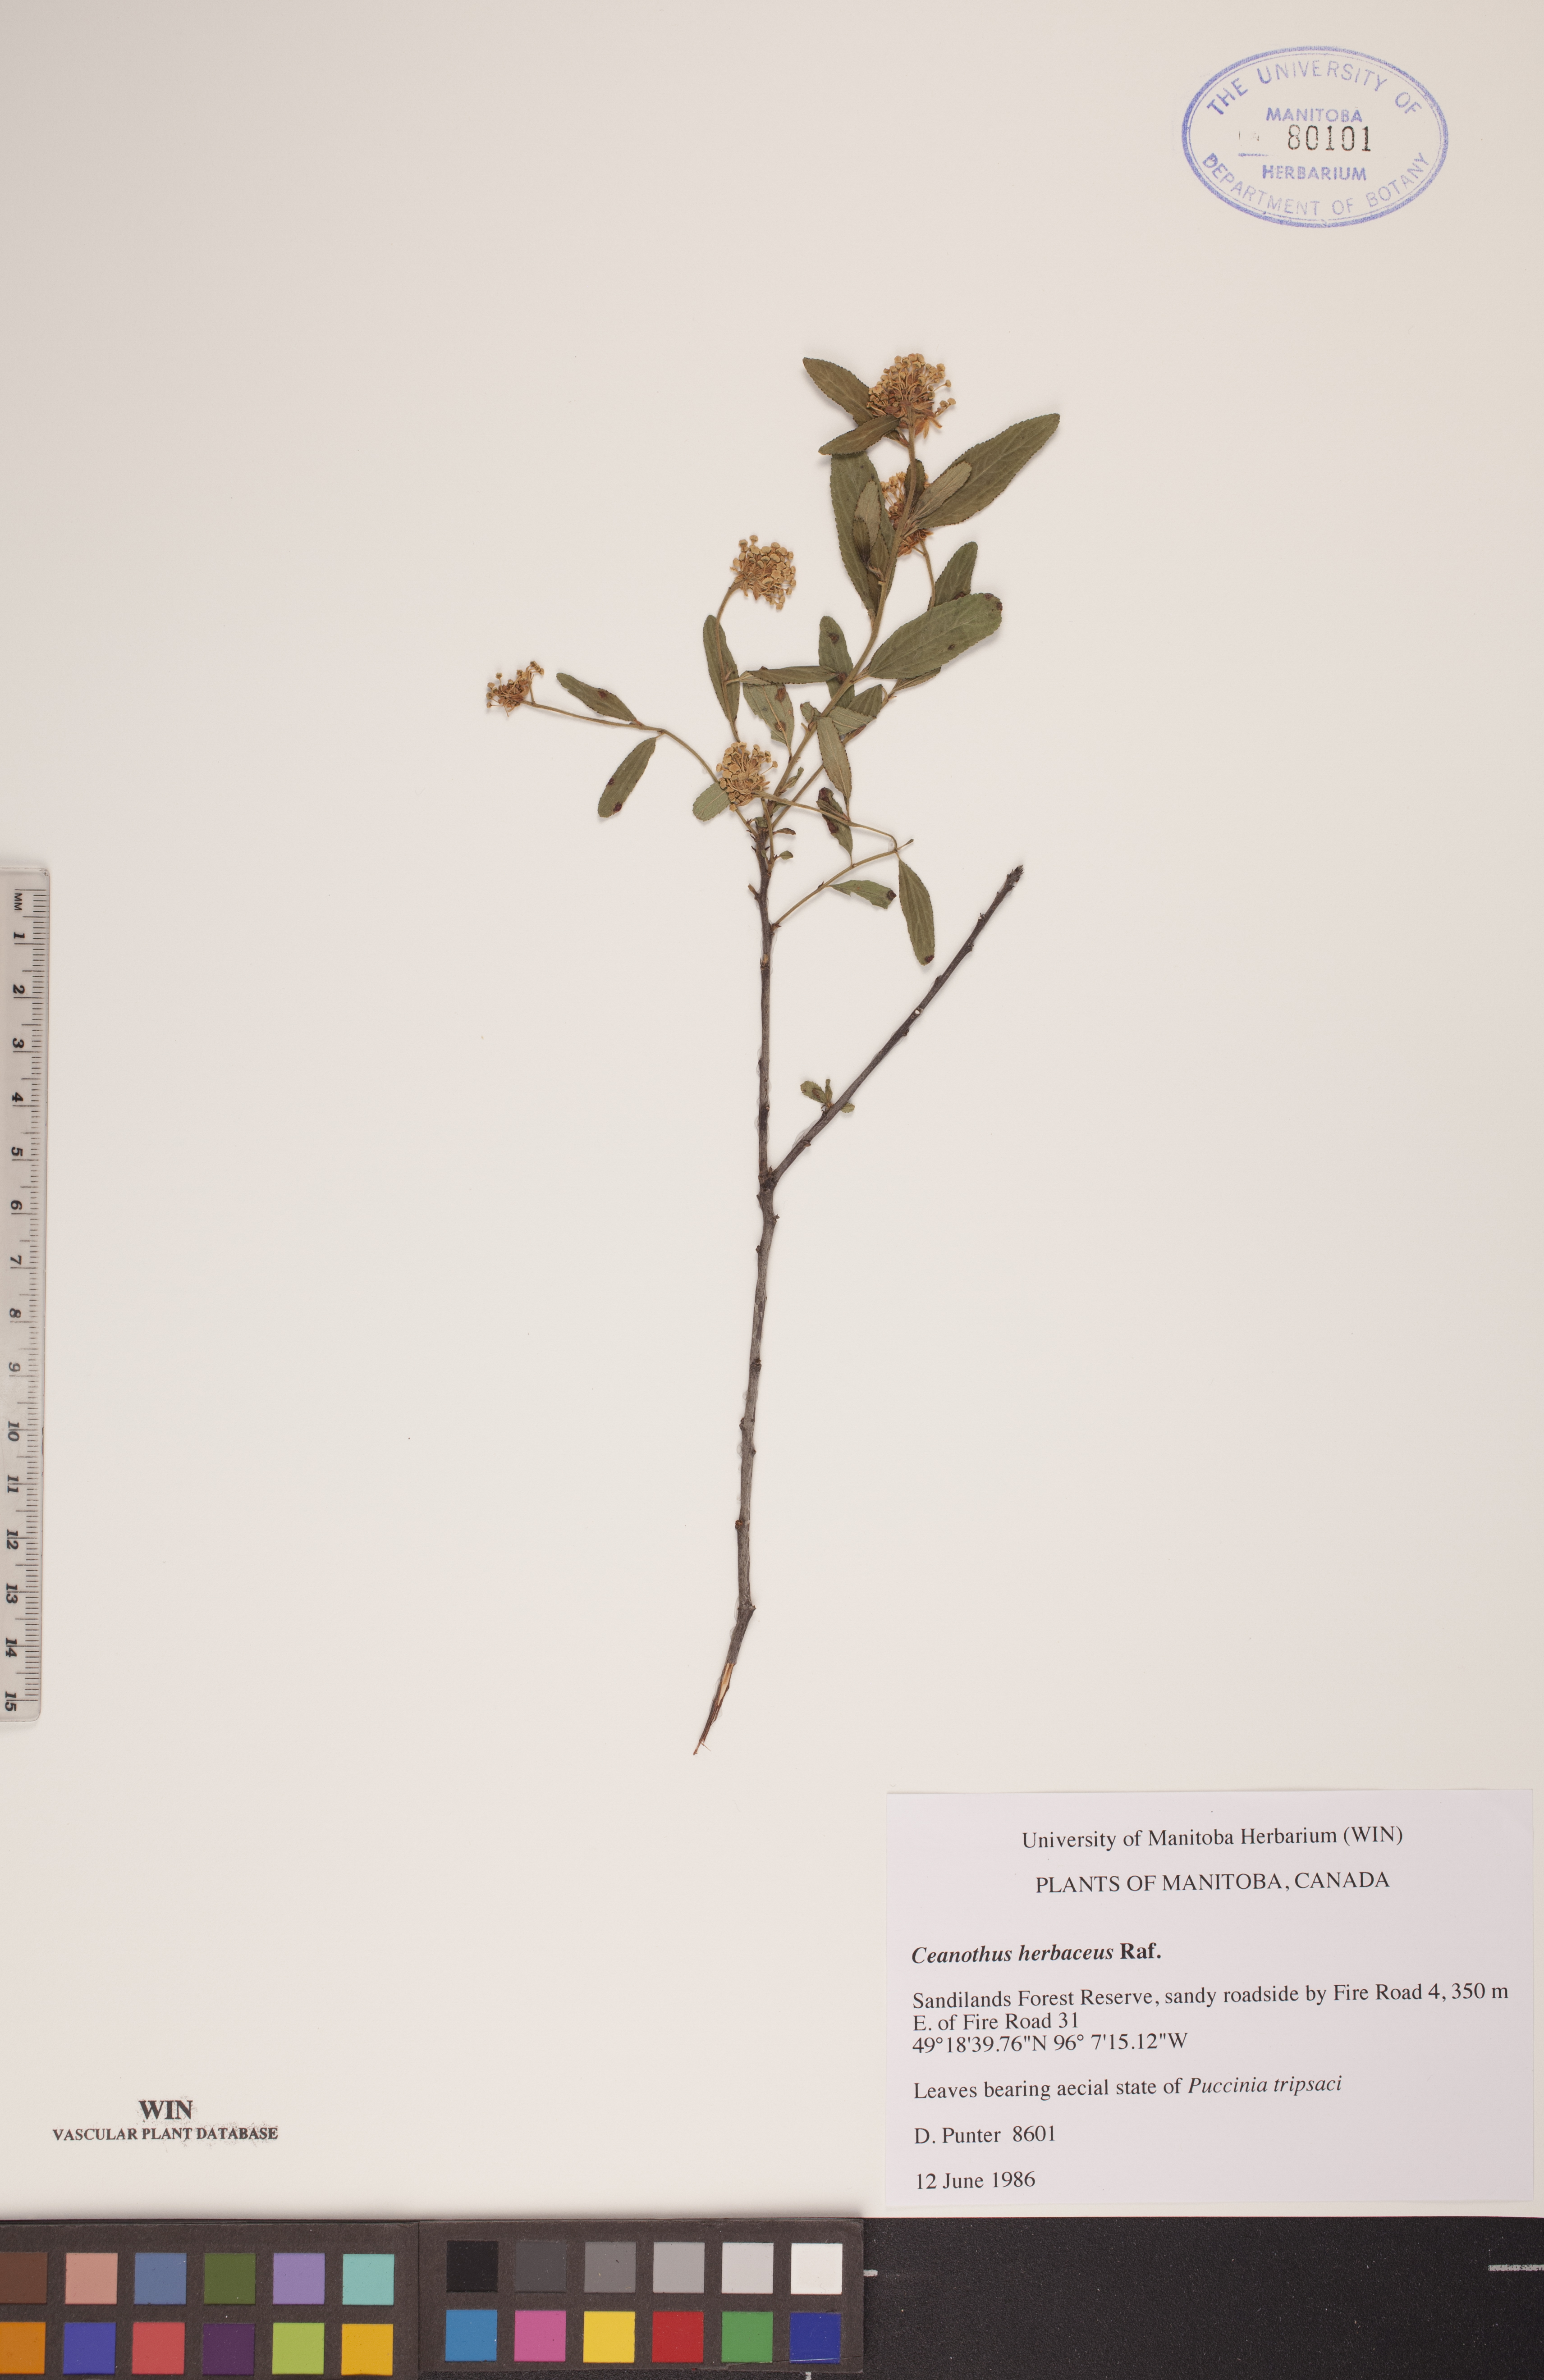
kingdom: Plantae
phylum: Tracheophyta
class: Magnoliopsida
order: Rosales
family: Rhamnaceae
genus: Ceanothus
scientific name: Ceanothus herbaceus
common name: Inland ceanothus
